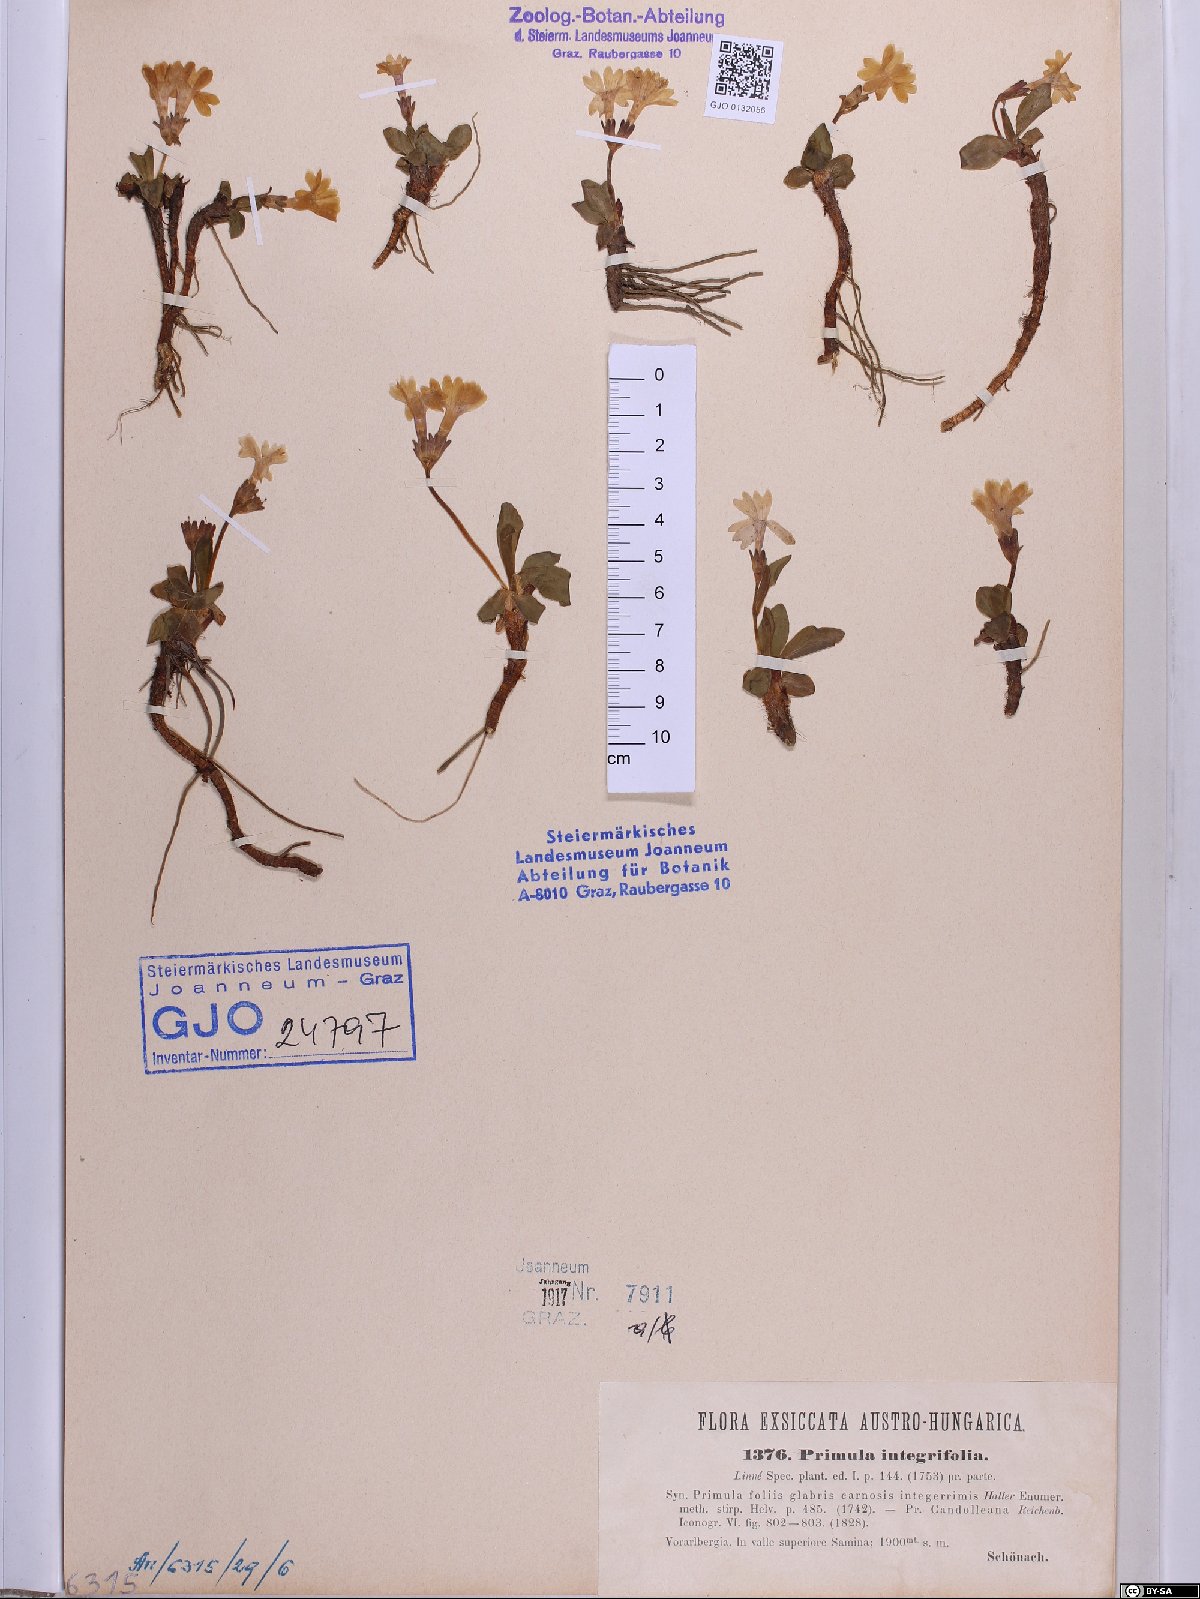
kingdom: Plantae
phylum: Tracheophyta
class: Magnoliopsida
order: Ericales
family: Primulaceae
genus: Primula
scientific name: Primula integrifolia
